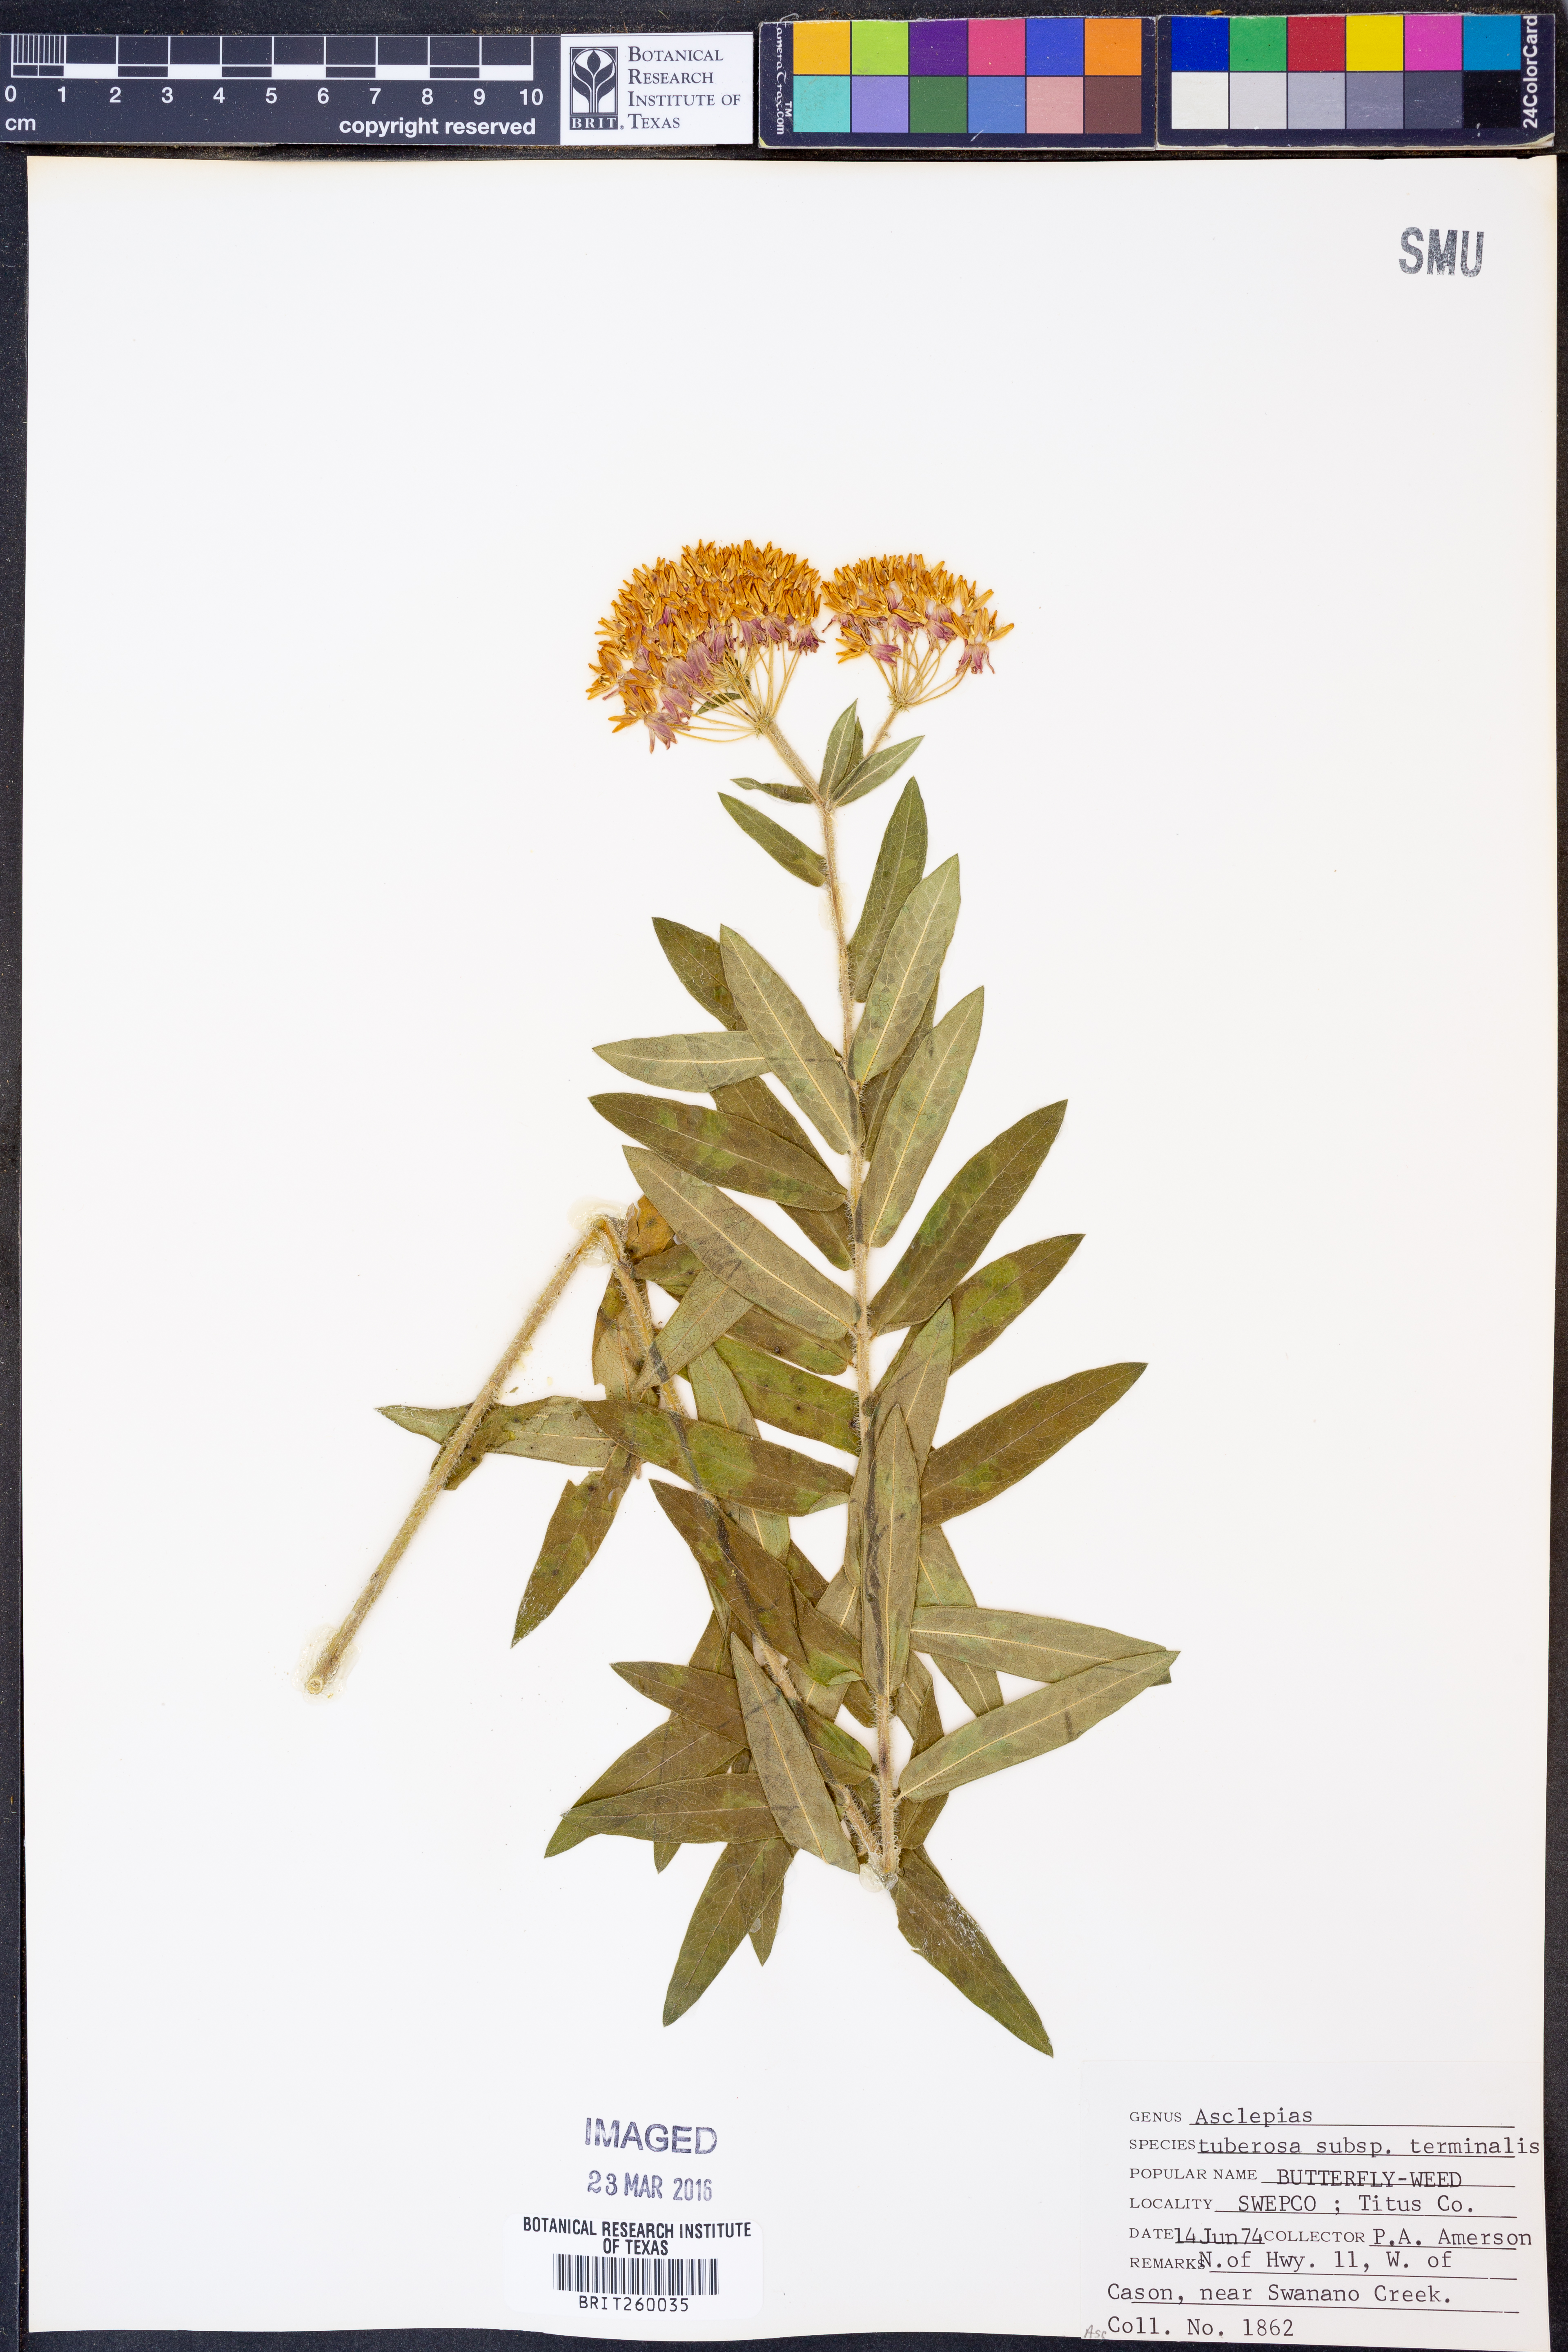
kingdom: Plantae
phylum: Tracheophyta
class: Magnoliopsida
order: Gentianales
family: Apocynaceae
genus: Asclepias
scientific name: Asclepias tuberosa
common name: Butterfly milkweed
